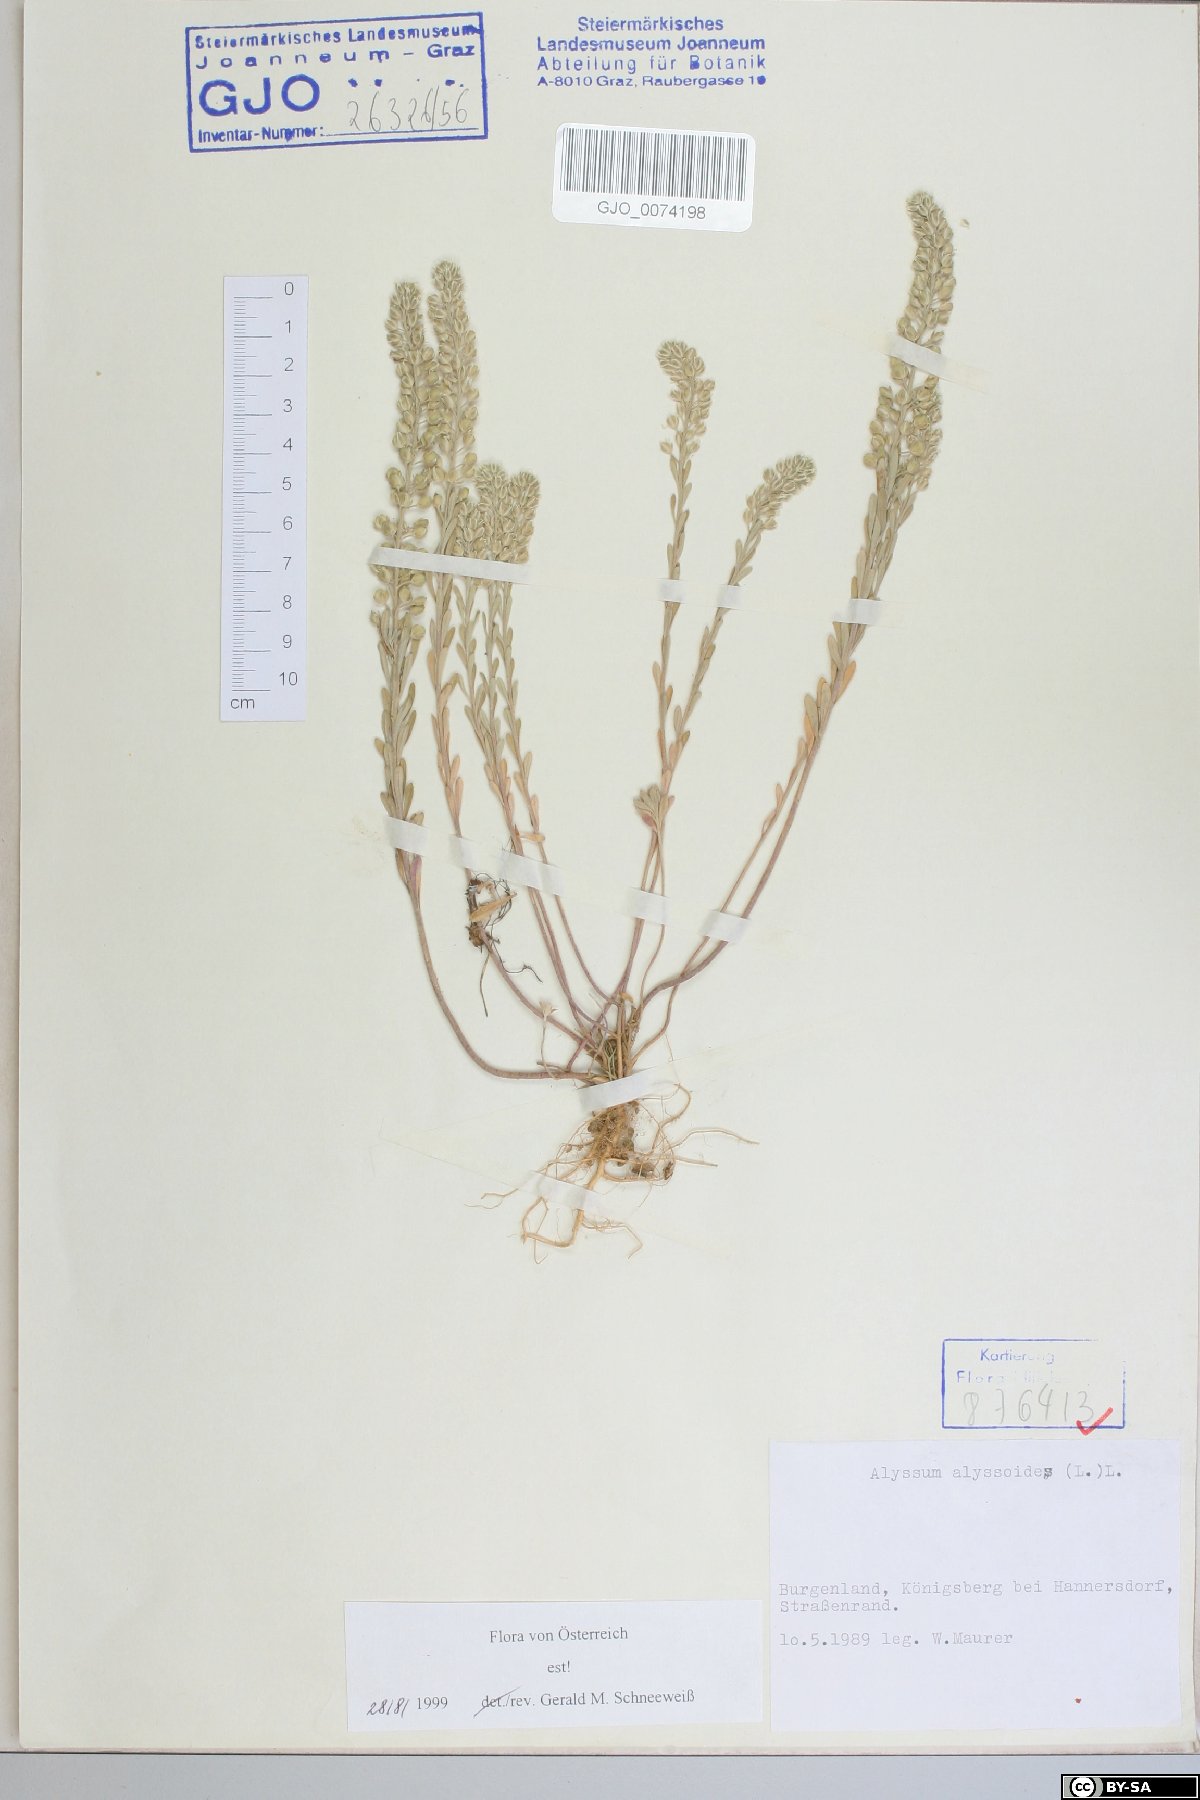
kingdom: Plantae
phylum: Tracheophyta
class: Magnoliopsida
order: Brassicales
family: Brassicaceae
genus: Alyssum
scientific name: Alyssum alyssoides
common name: Small alison
